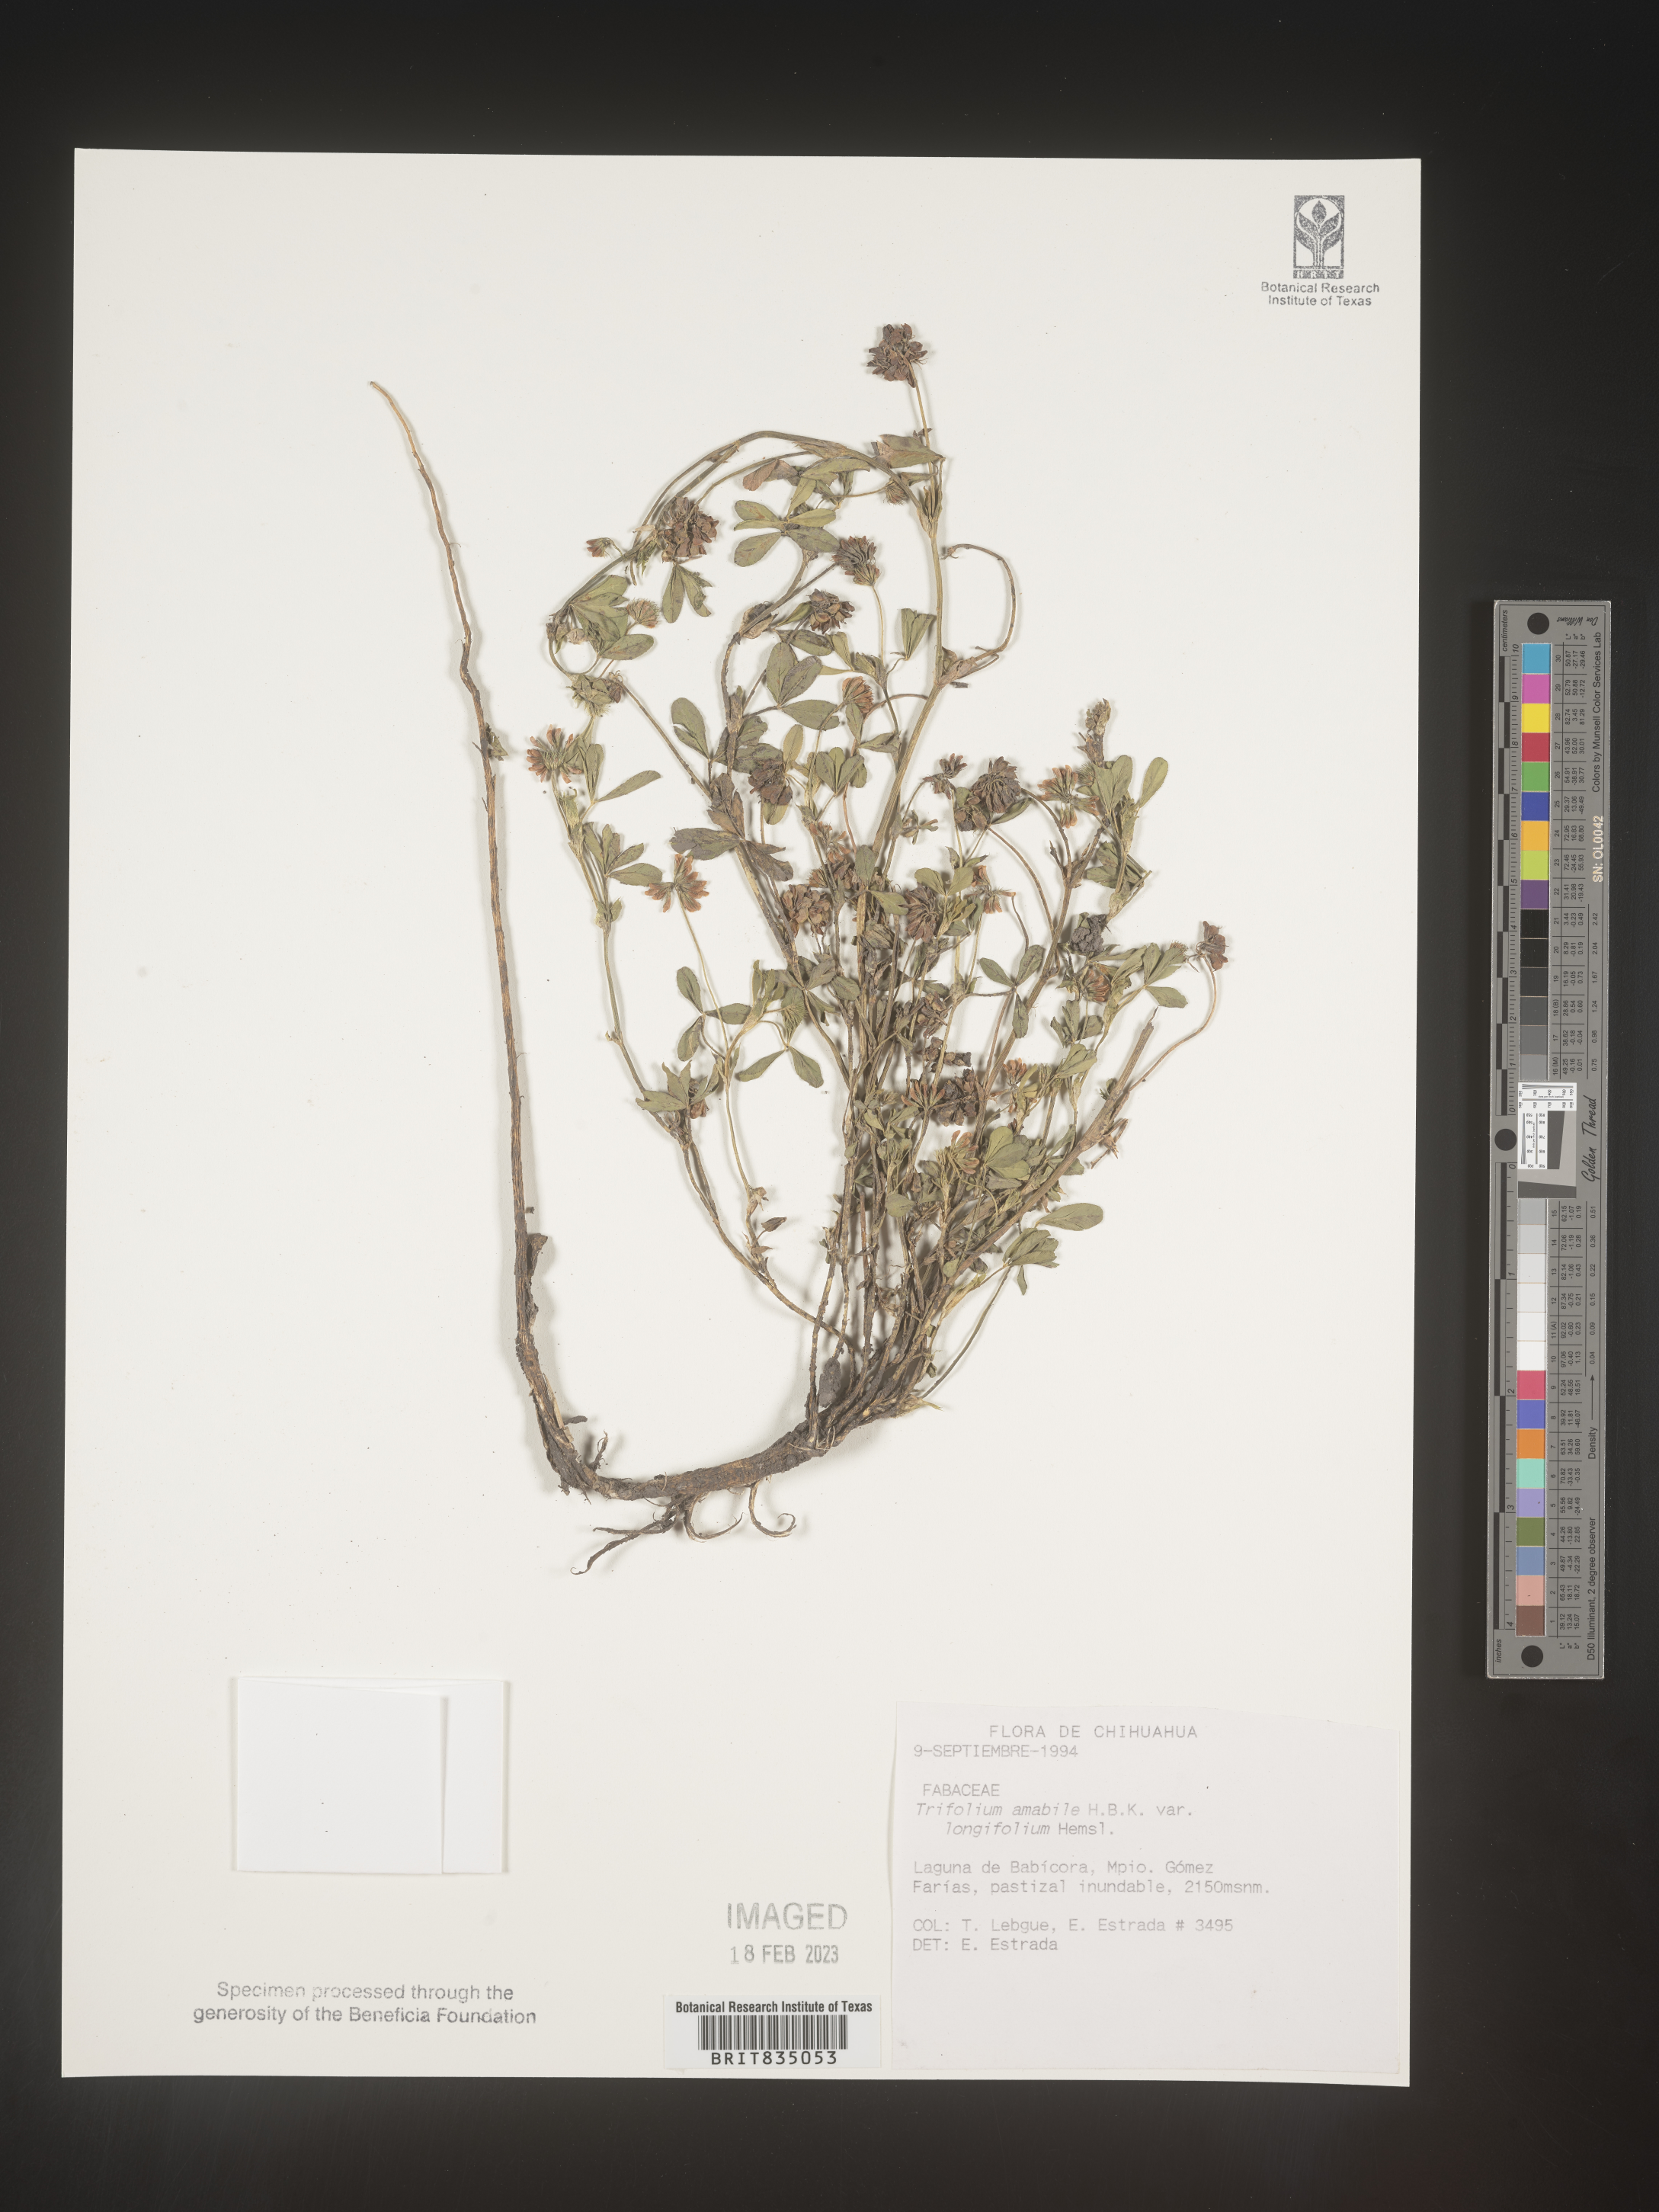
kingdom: Plantae
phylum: Tracheophyta
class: Magnoliopsida
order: Fabales
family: Fabaceae
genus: Trifolium
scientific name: Trifolium
